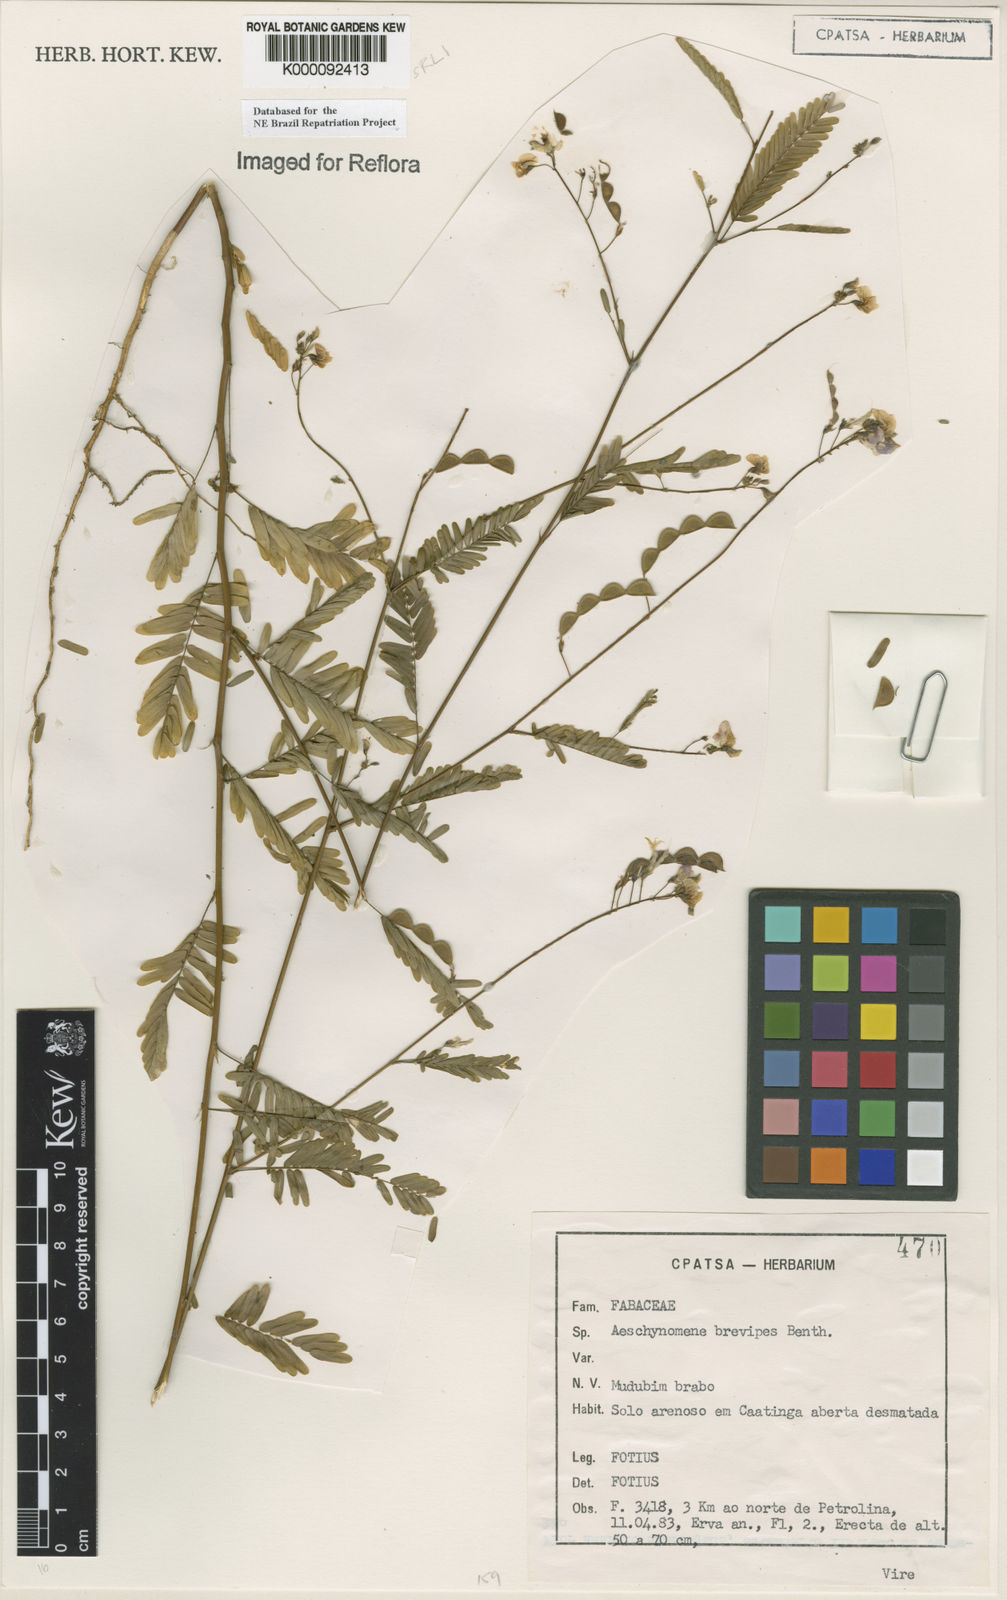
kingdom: Plantae
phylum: Tracheophyta
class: Magnoliopsida
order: Fabales
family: Fabaceae
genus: Ctenodon
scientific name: Ctenodon brevipes
